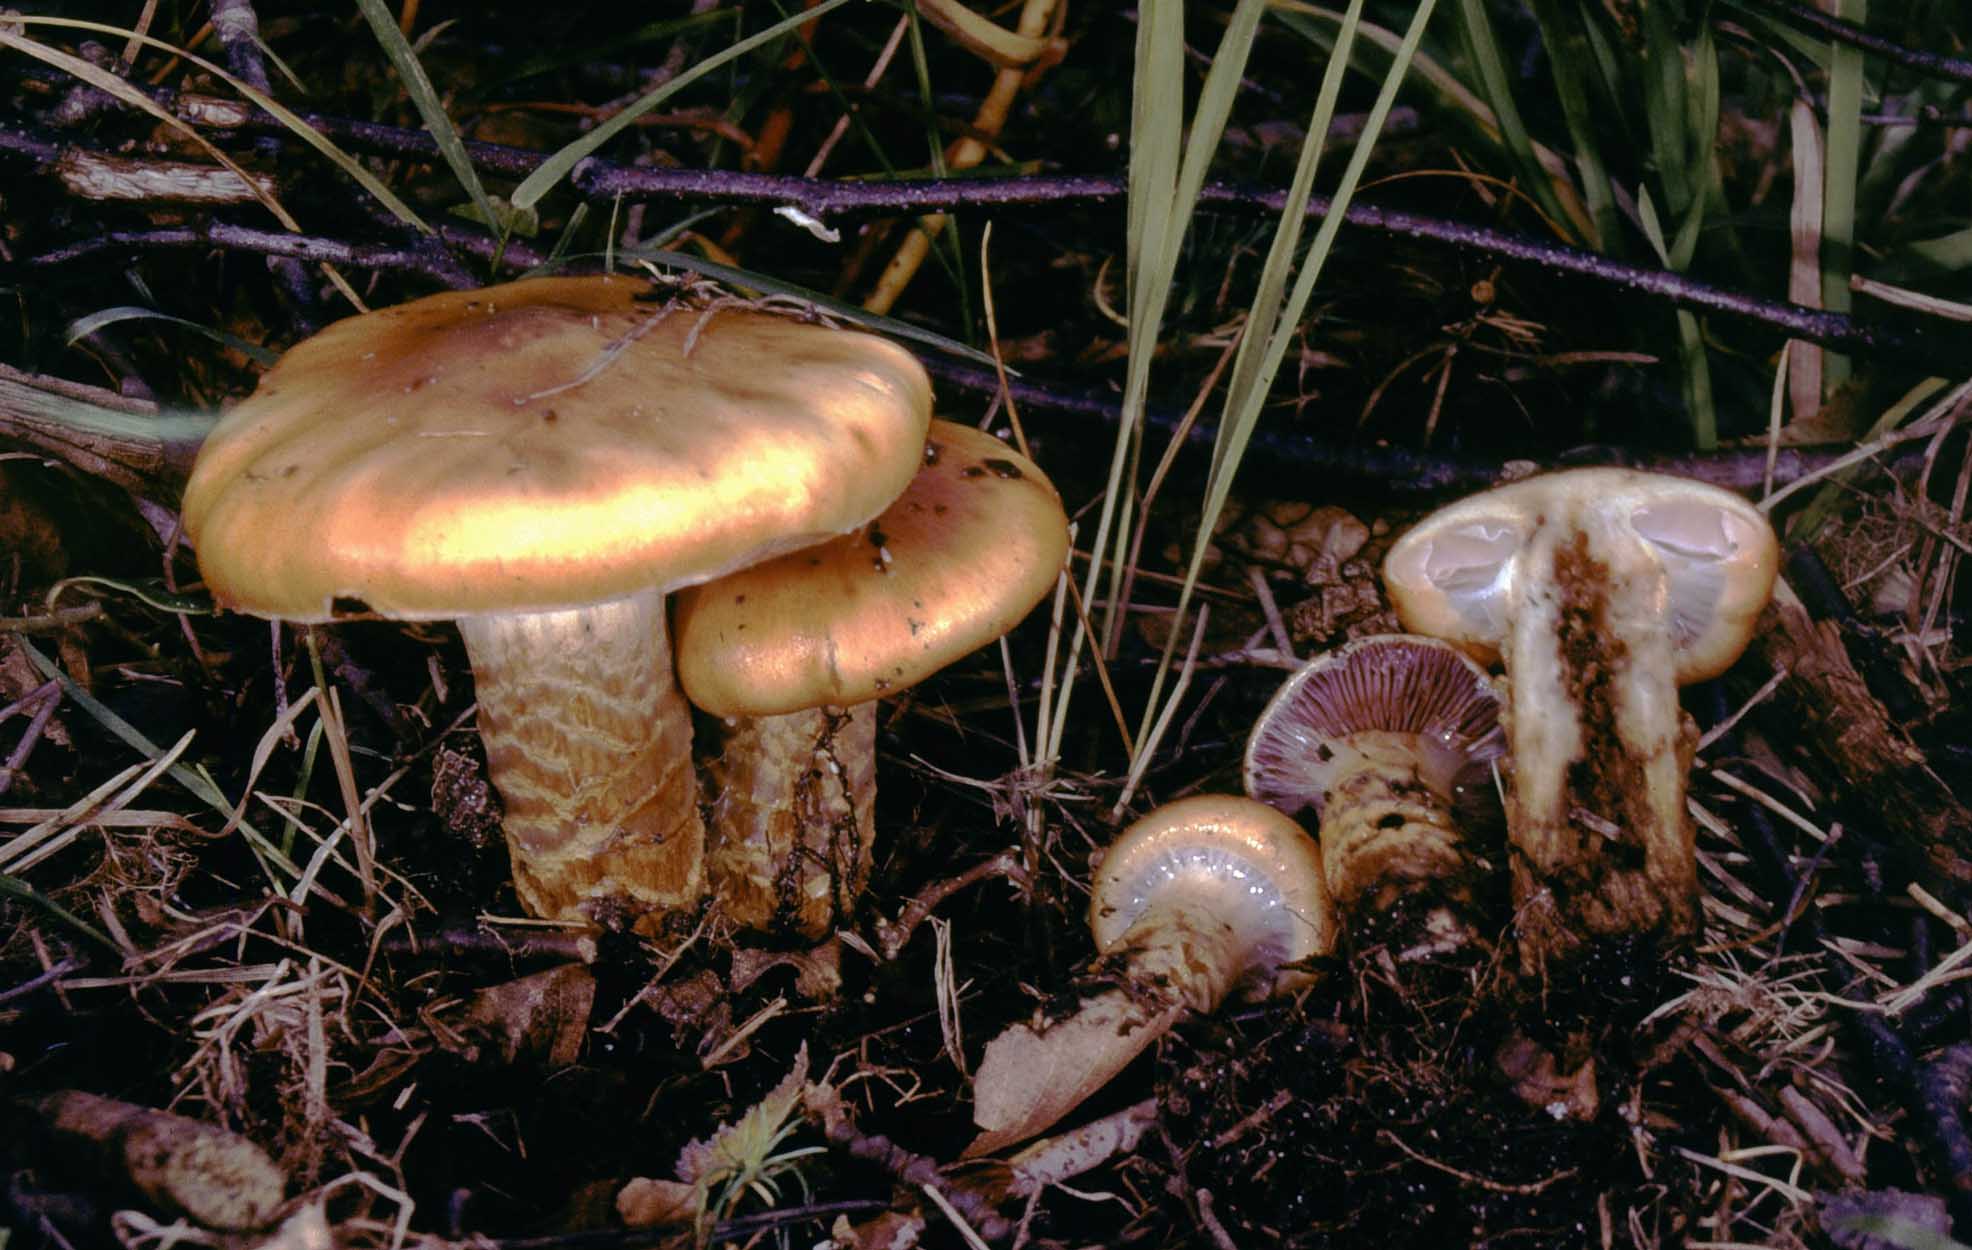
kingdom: Fungi
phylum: Basidiomycota
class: Agaricomycetes
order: Agaricales
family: Cortinariaceae
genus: Cortinarius
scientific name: Cortinarius trivialis
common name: brunslimet slørhat
